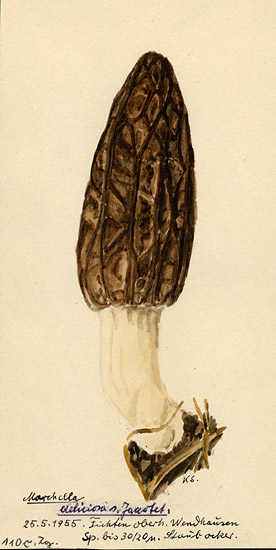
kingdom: Fungi
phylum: Ascomycota
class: Pezizomycetes
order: Pezizales
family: Morchellaceae
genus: Morchella
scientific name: Morchella deliciosa
